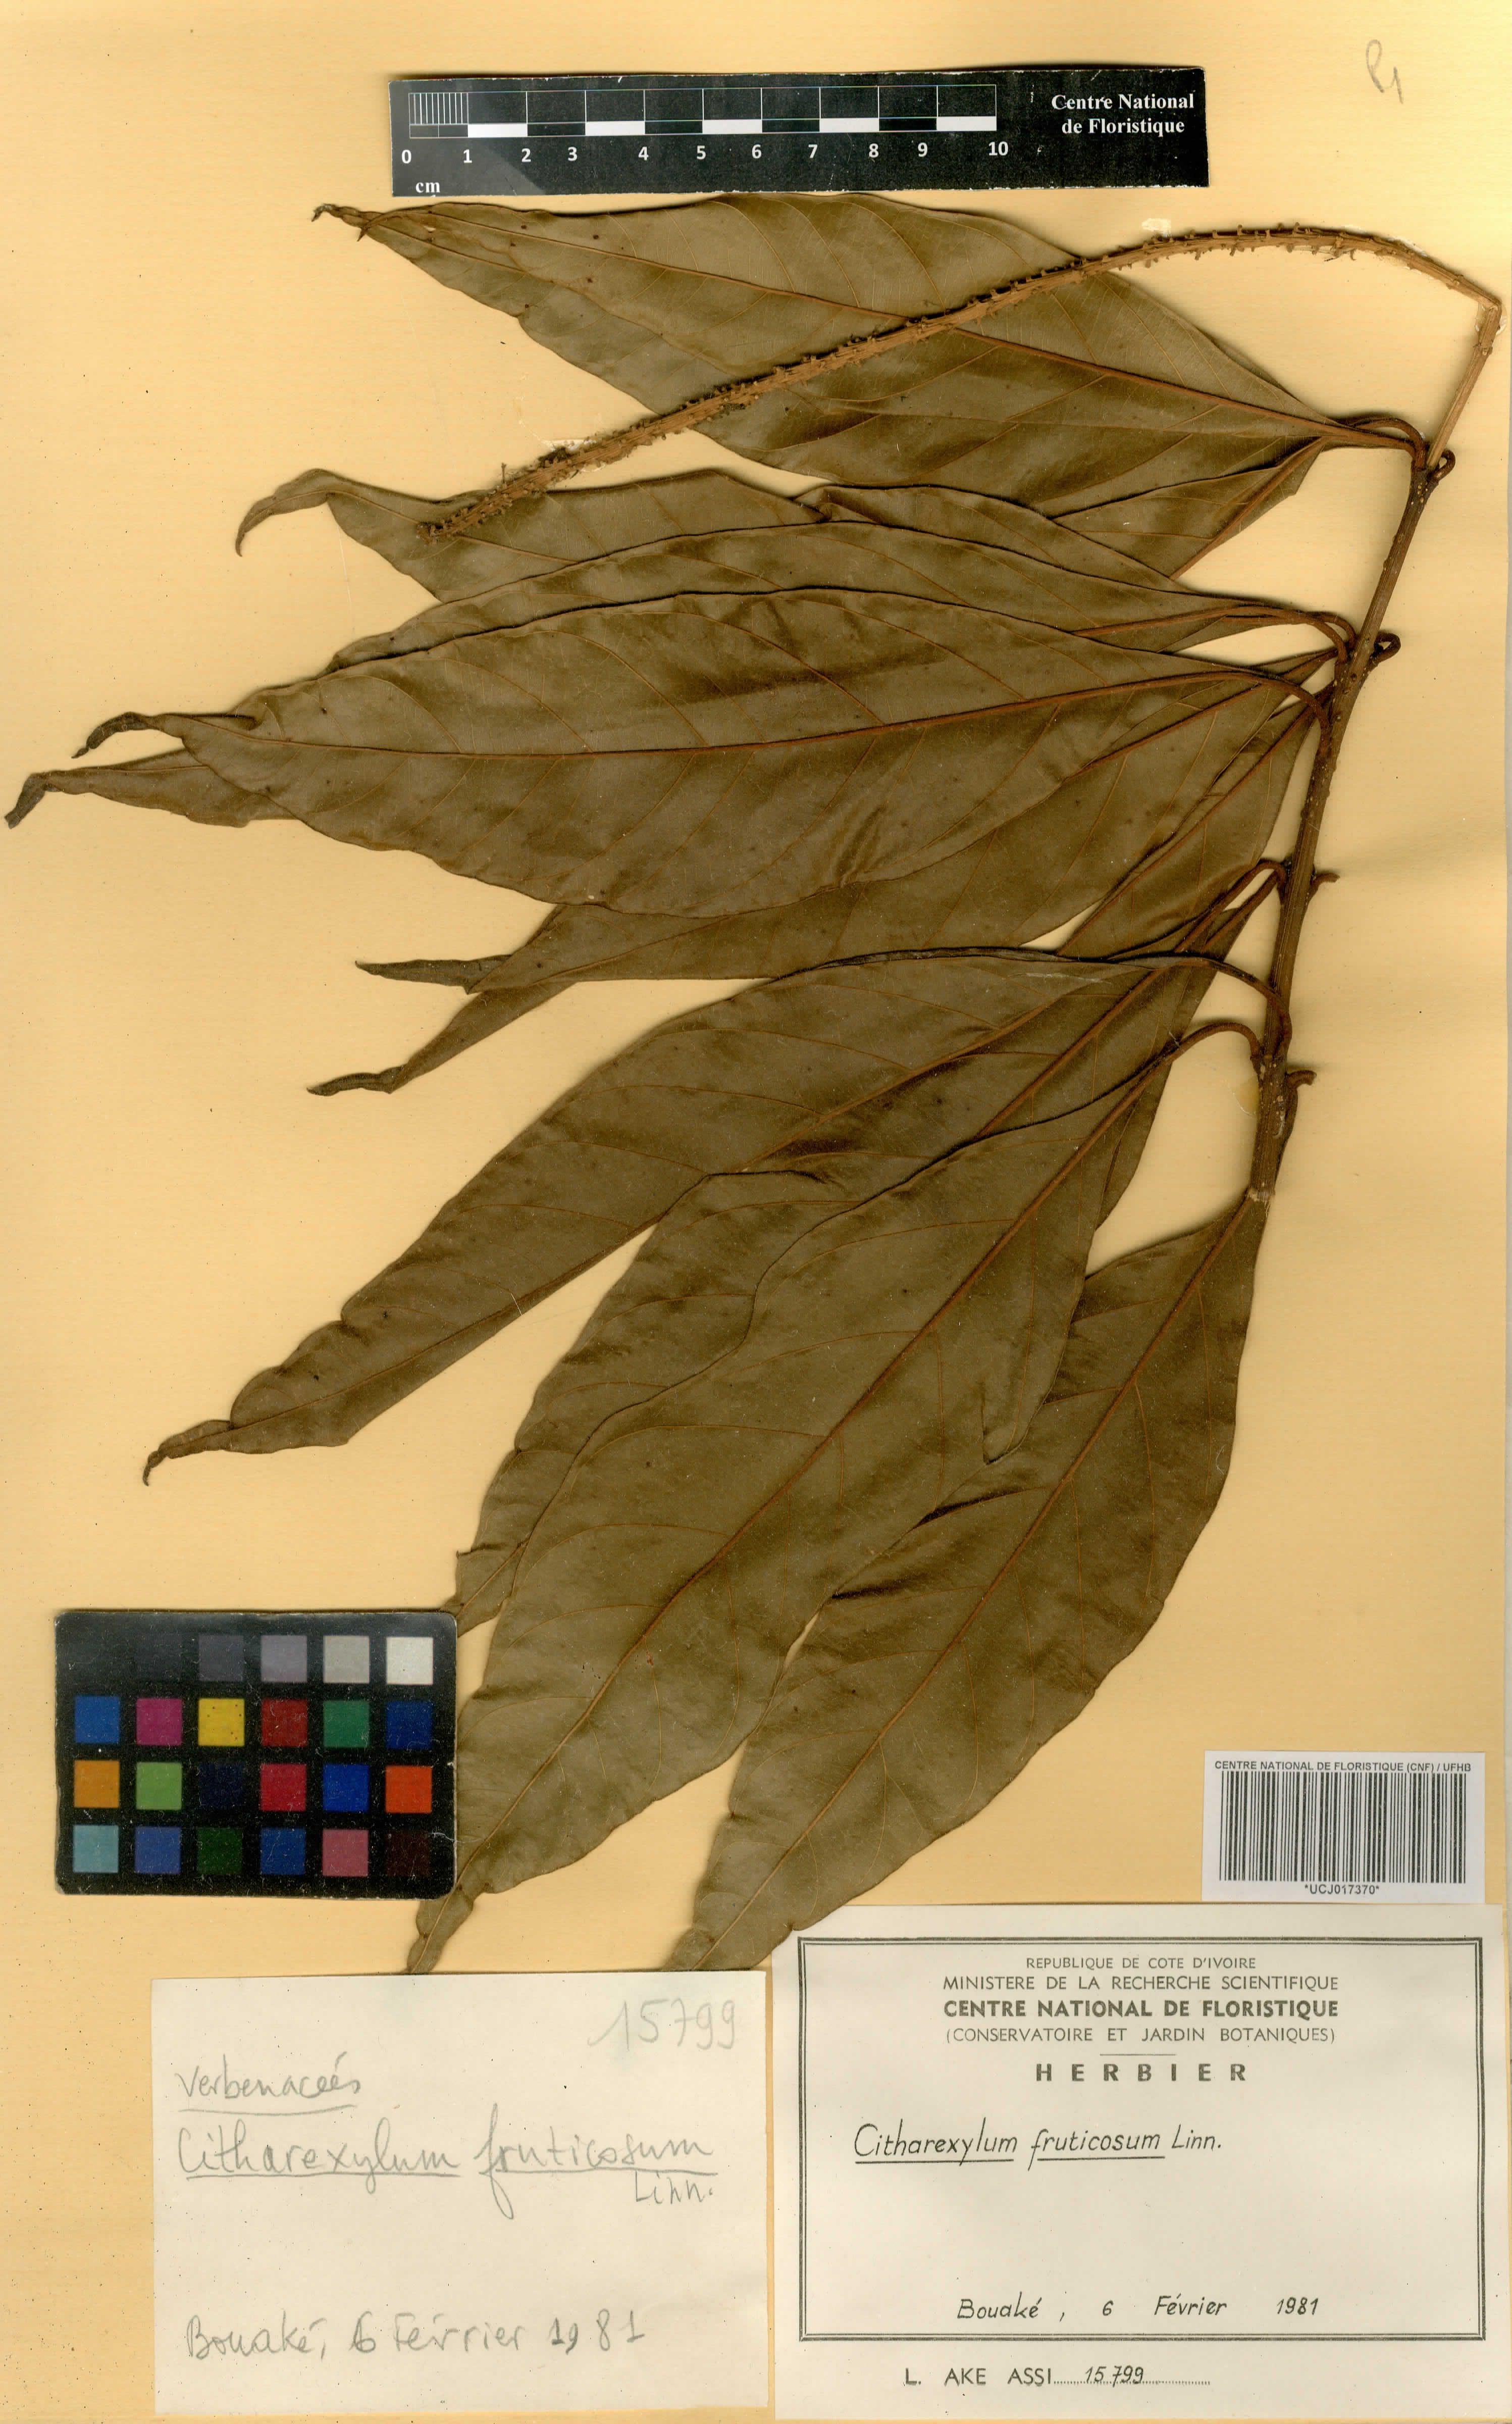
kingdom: Plantae
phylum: Tracheophyta
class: Magnoliopsida
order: Lamiales
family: Verbenaceae
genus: Citharexylum
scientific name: Citharexylum spinosum
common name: Fiddlewood
